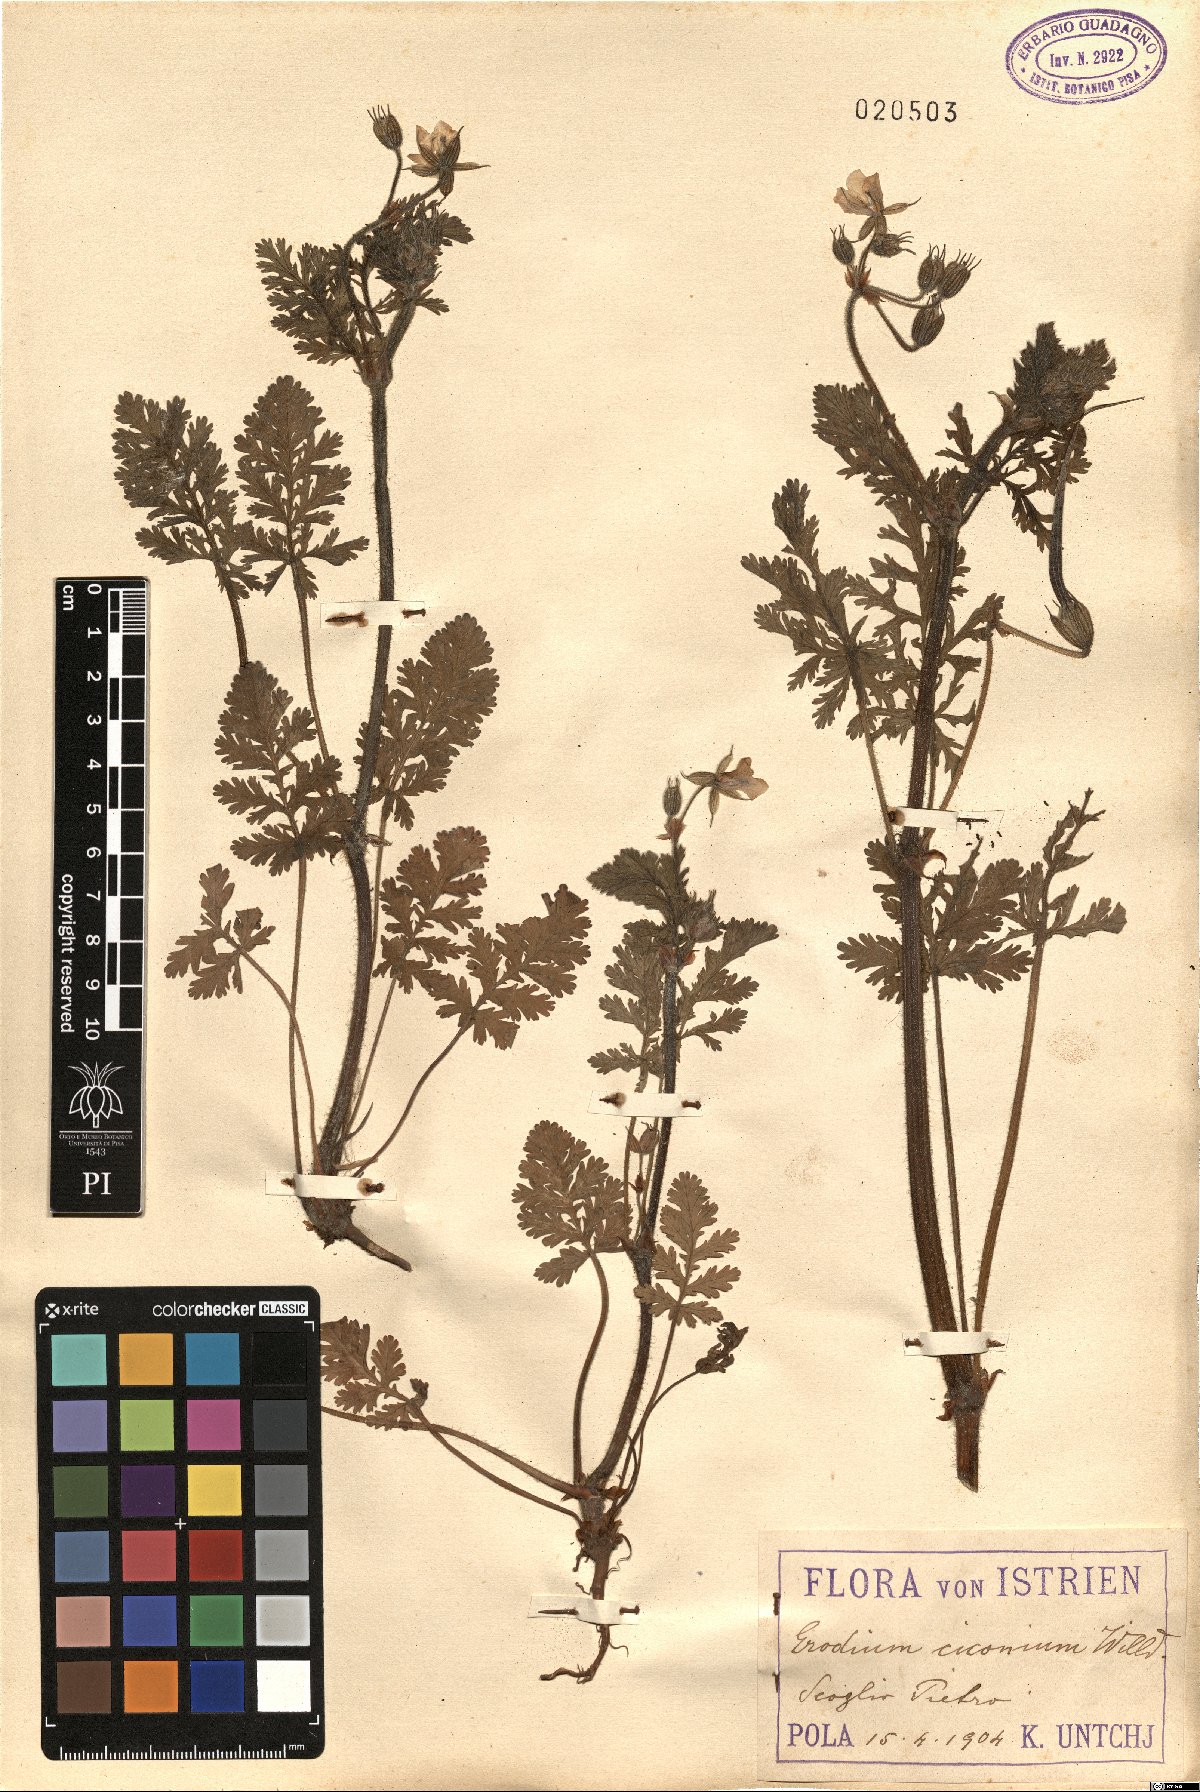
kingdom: Plantae
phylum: Tracheophyta
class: Magnoliopsida
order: Geraniales
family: Geraniaceae
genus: Erodium
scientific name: Erodium ciconium
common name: Common stork's bill
